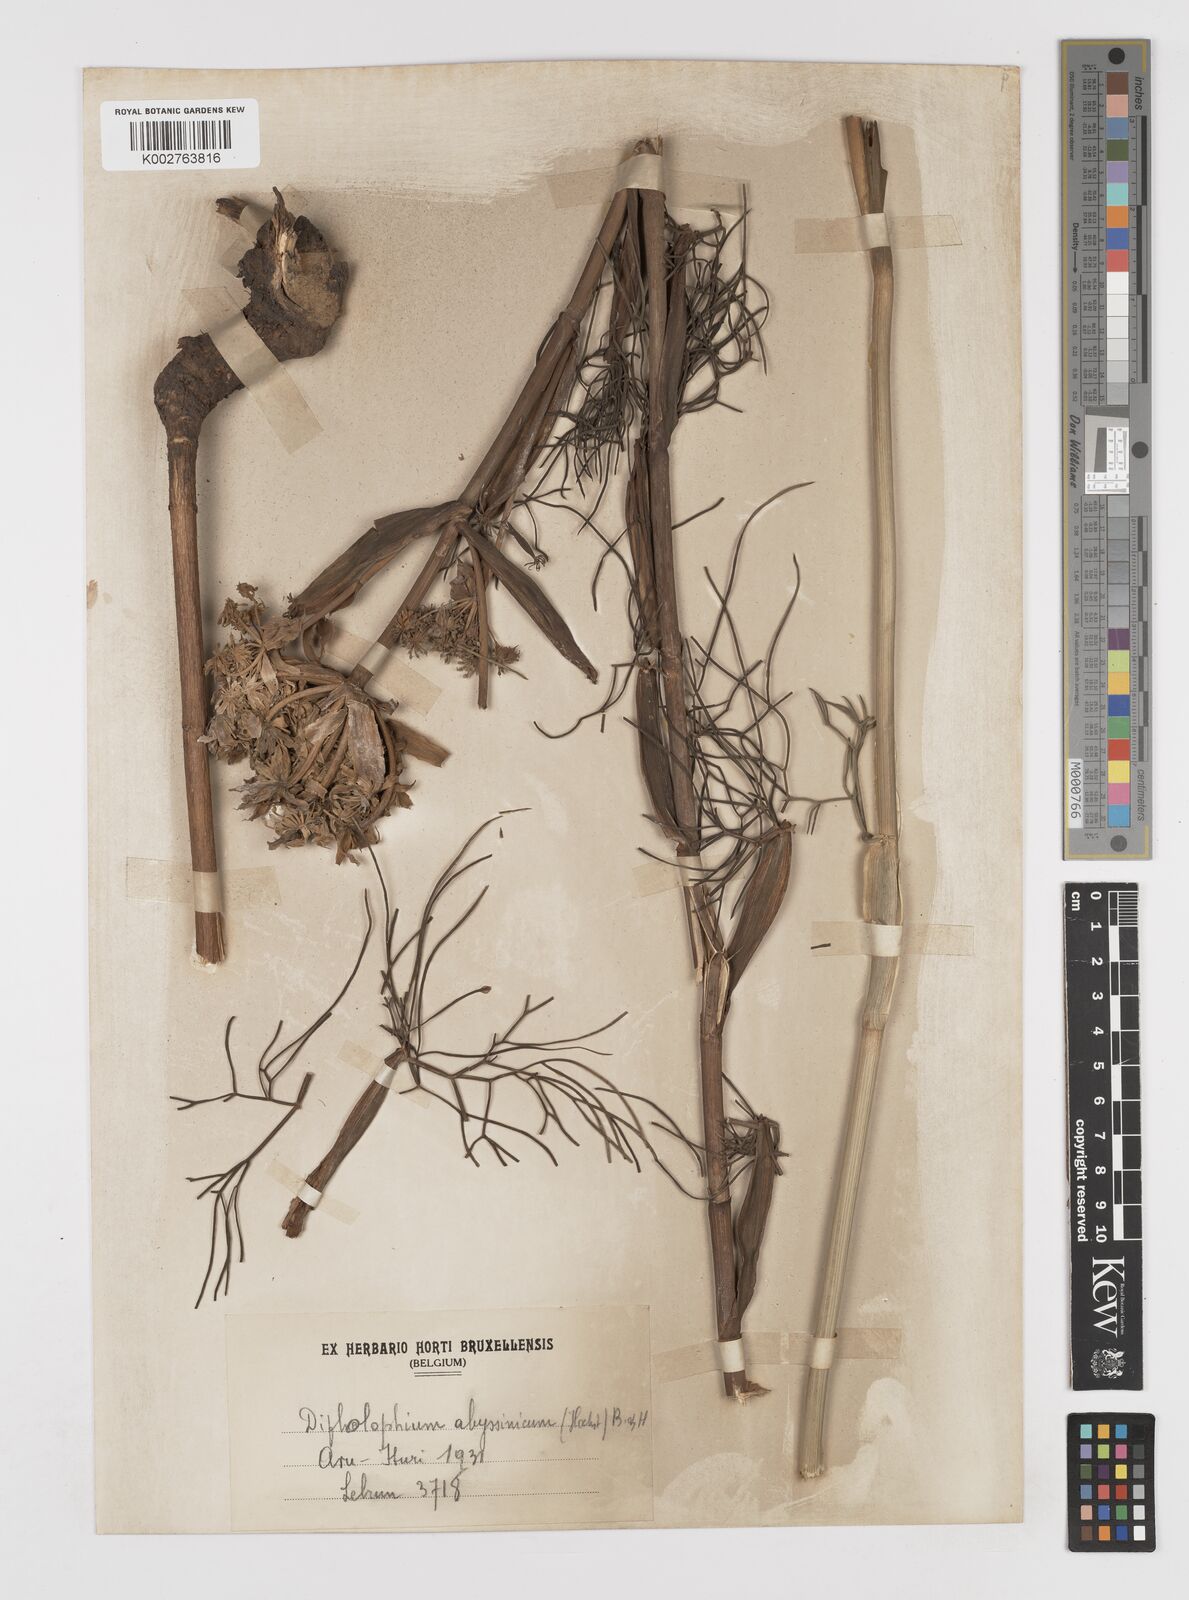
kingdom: Plantae
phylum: Tracheophyta
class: Magnoliopsida
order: Apiales
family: Apiaceae
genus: Diplolophium
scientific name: Diplolophium africanum
